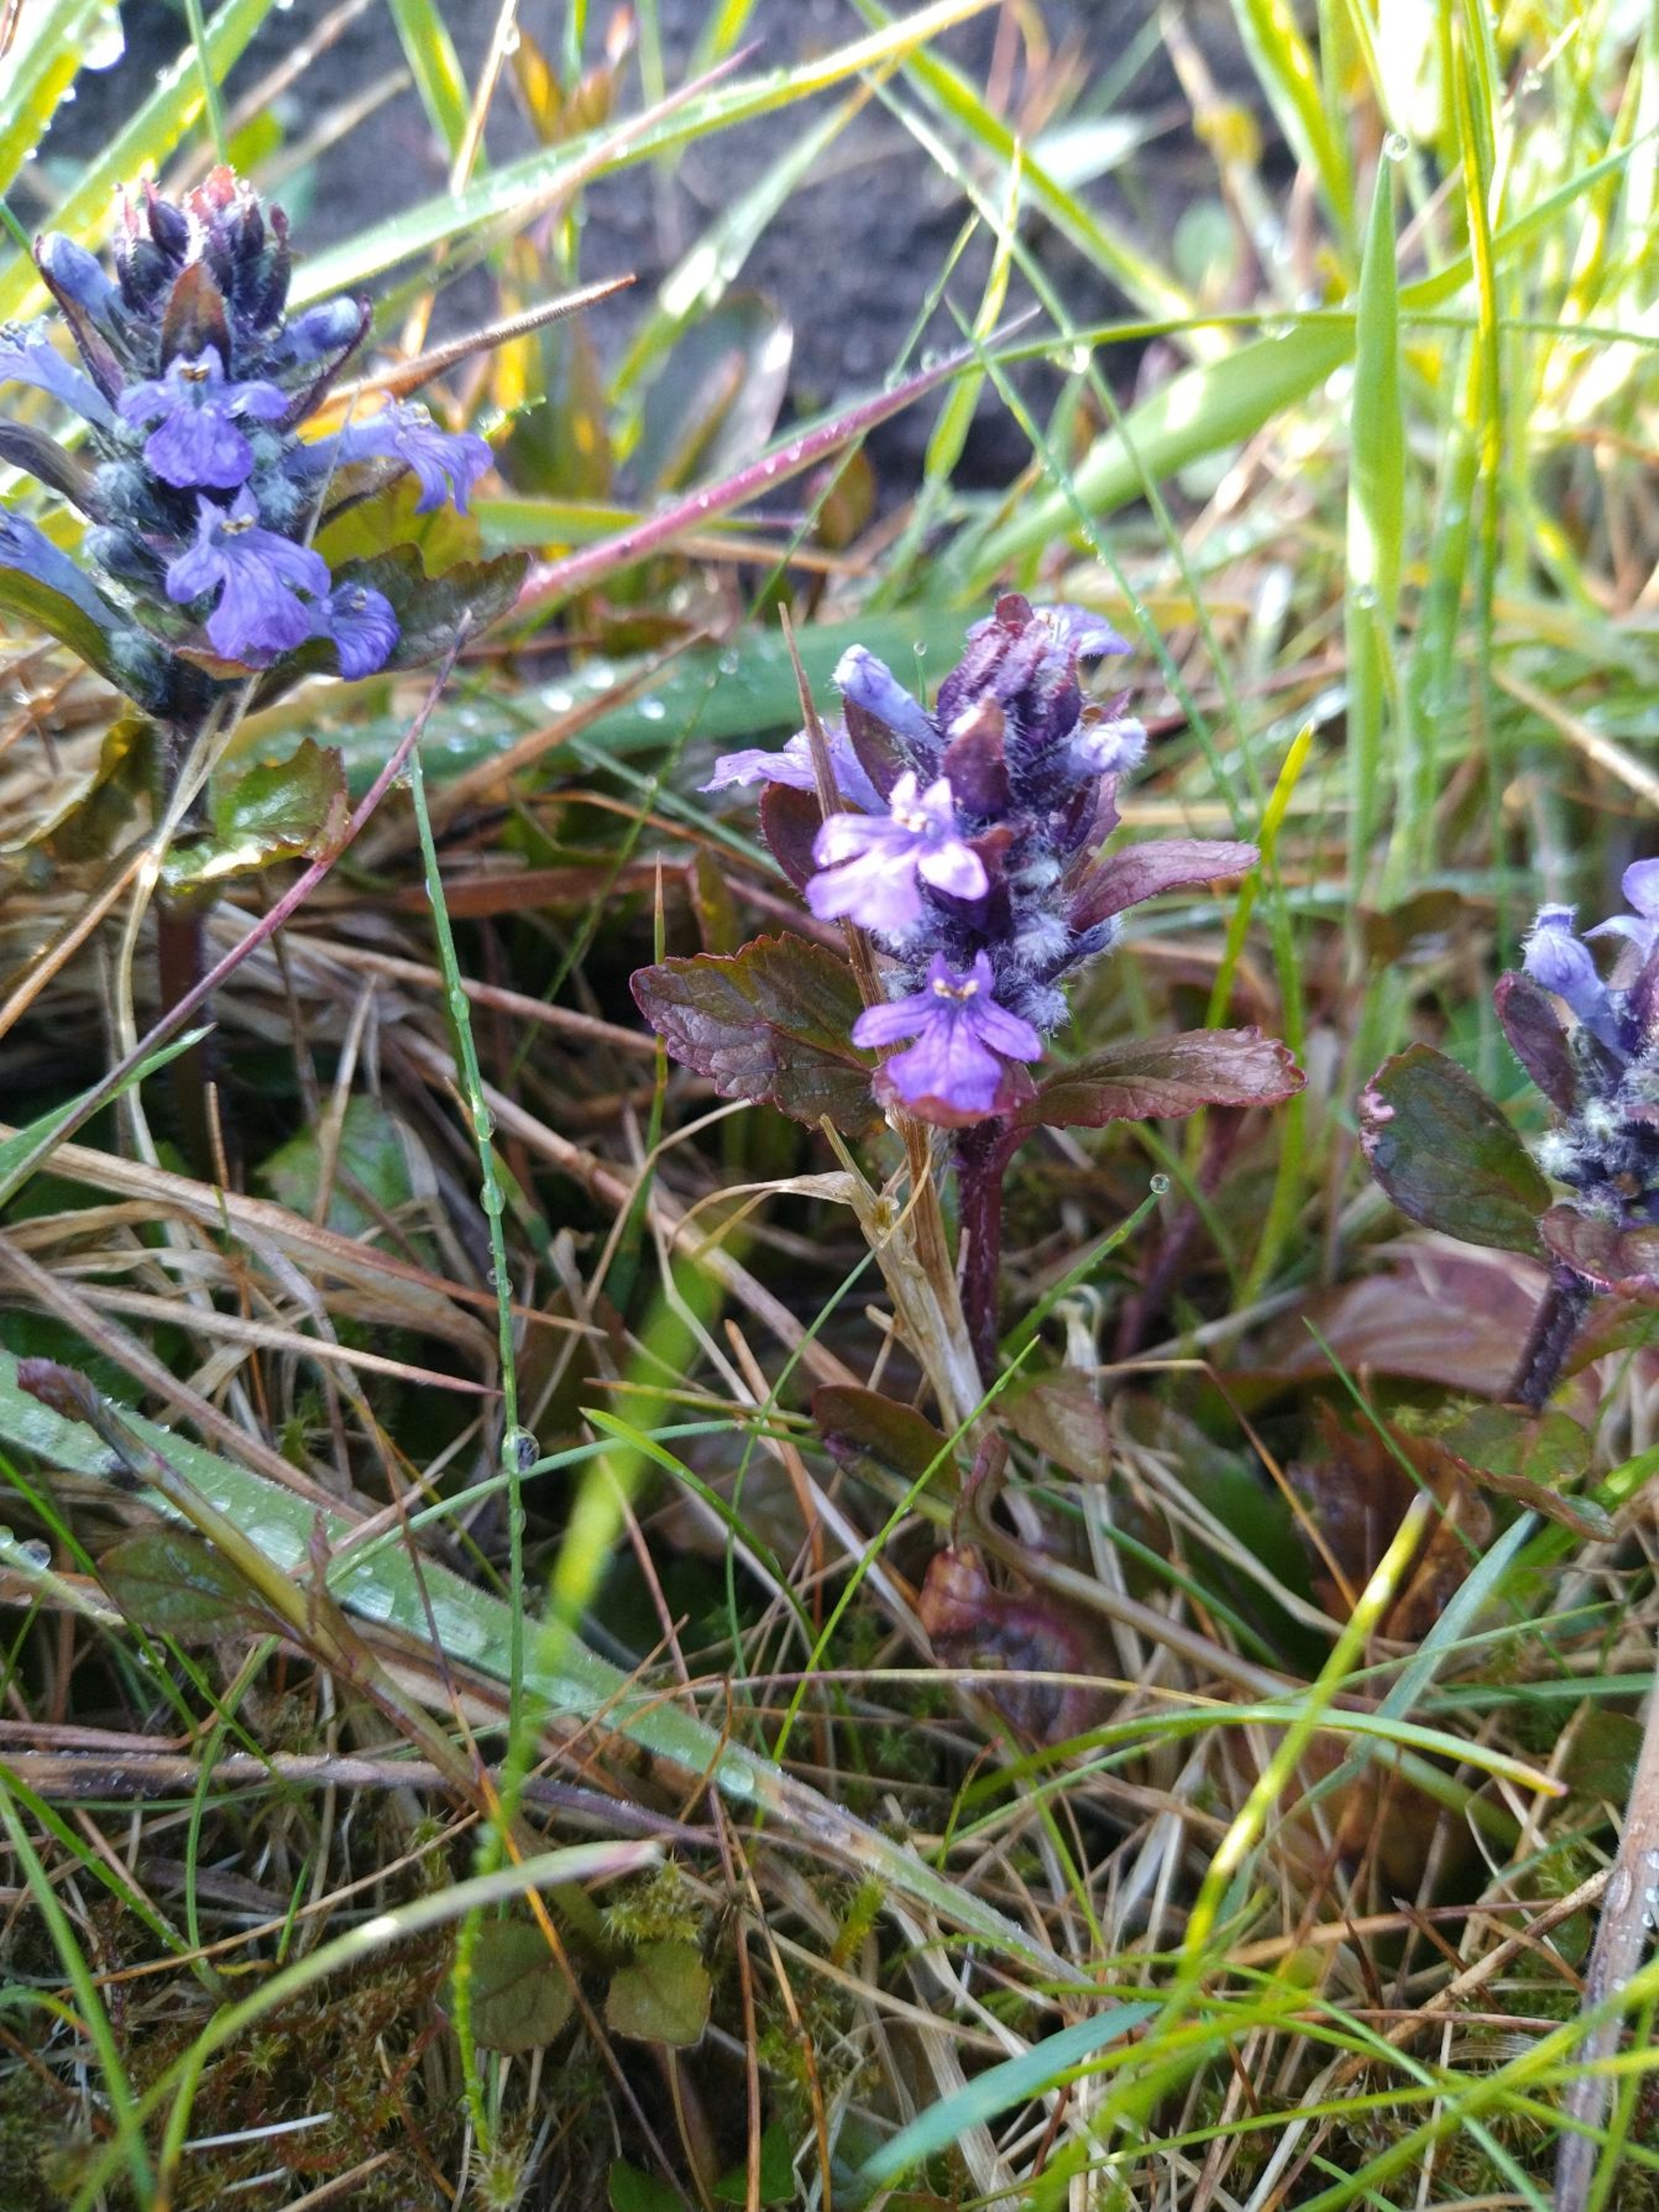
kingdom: Plantae
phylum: Tracheophyta
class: Magnoliopsida
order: Lamiales
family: Lamiaceae
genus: Ajuga
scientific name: Ajuga reptans
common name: Krybende læbeløs
